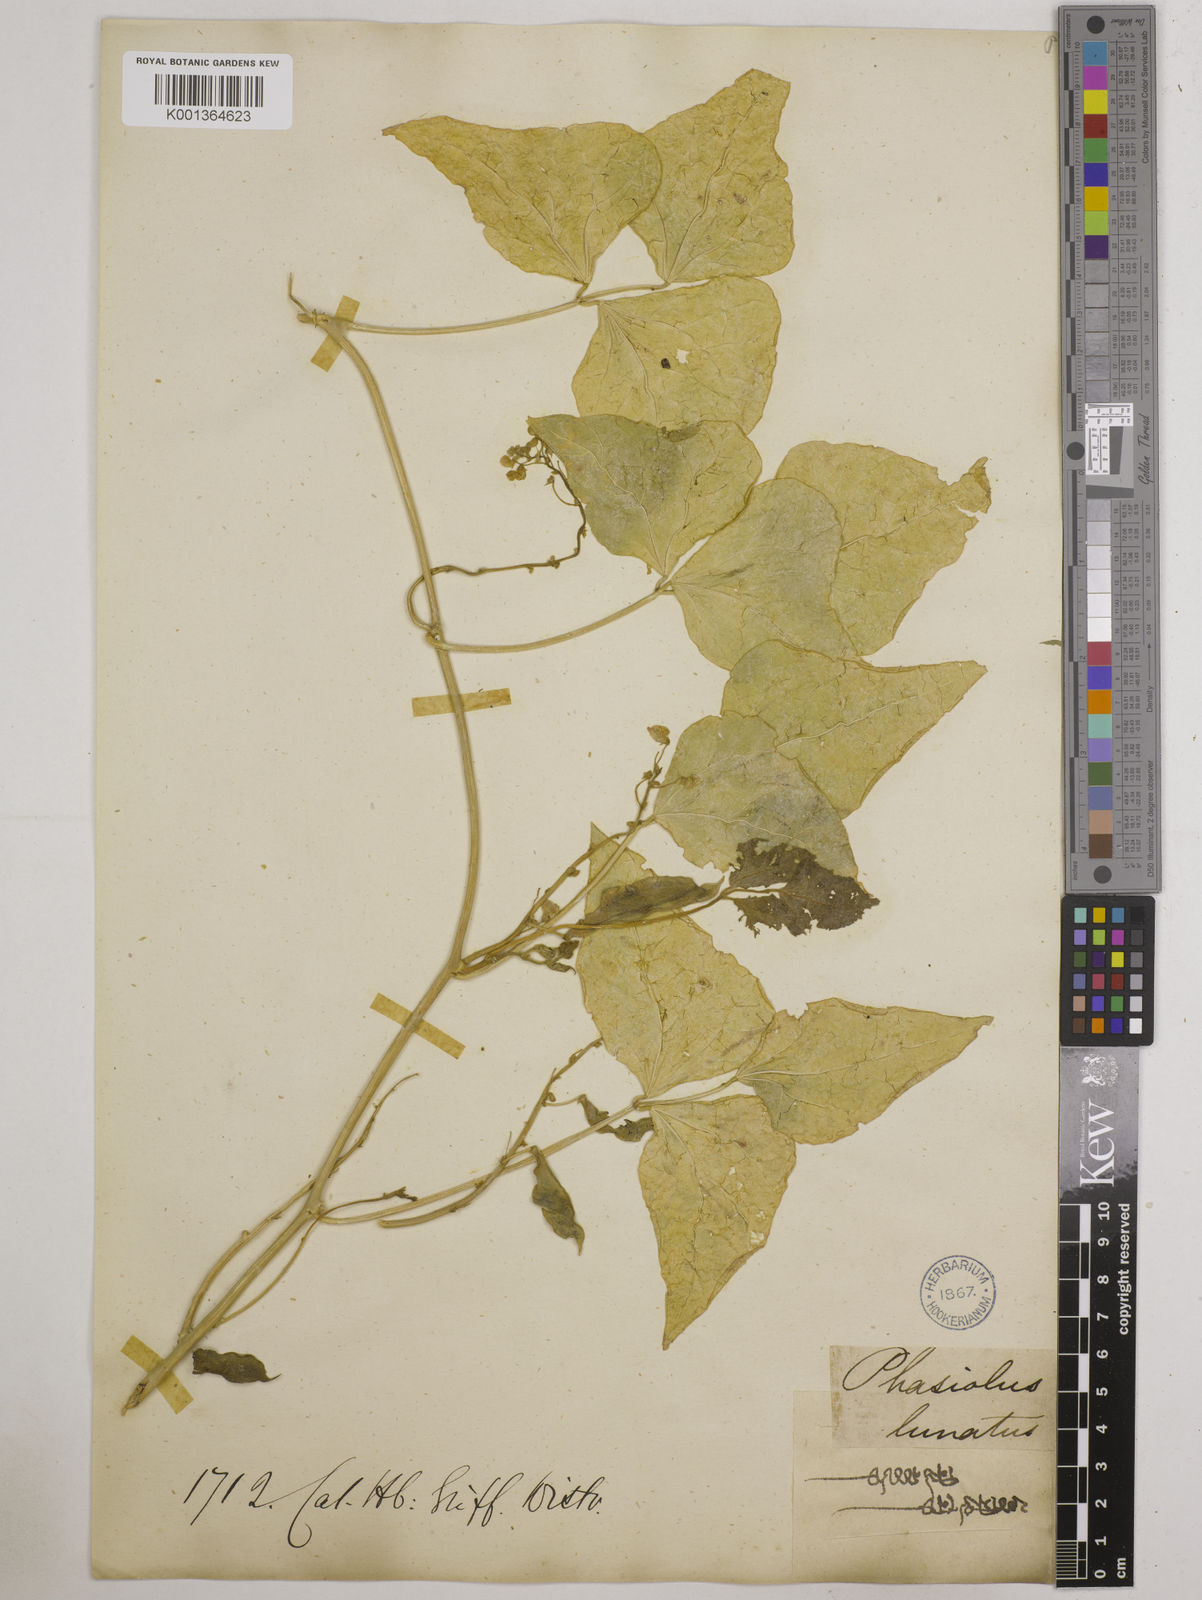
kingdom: Plantae
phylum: Tracheophyta
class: Magnoliopsida
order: Fabales
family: Fabaceae
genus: Phaseolus
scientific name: Phaseolus lunatus
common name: Sieva bean
